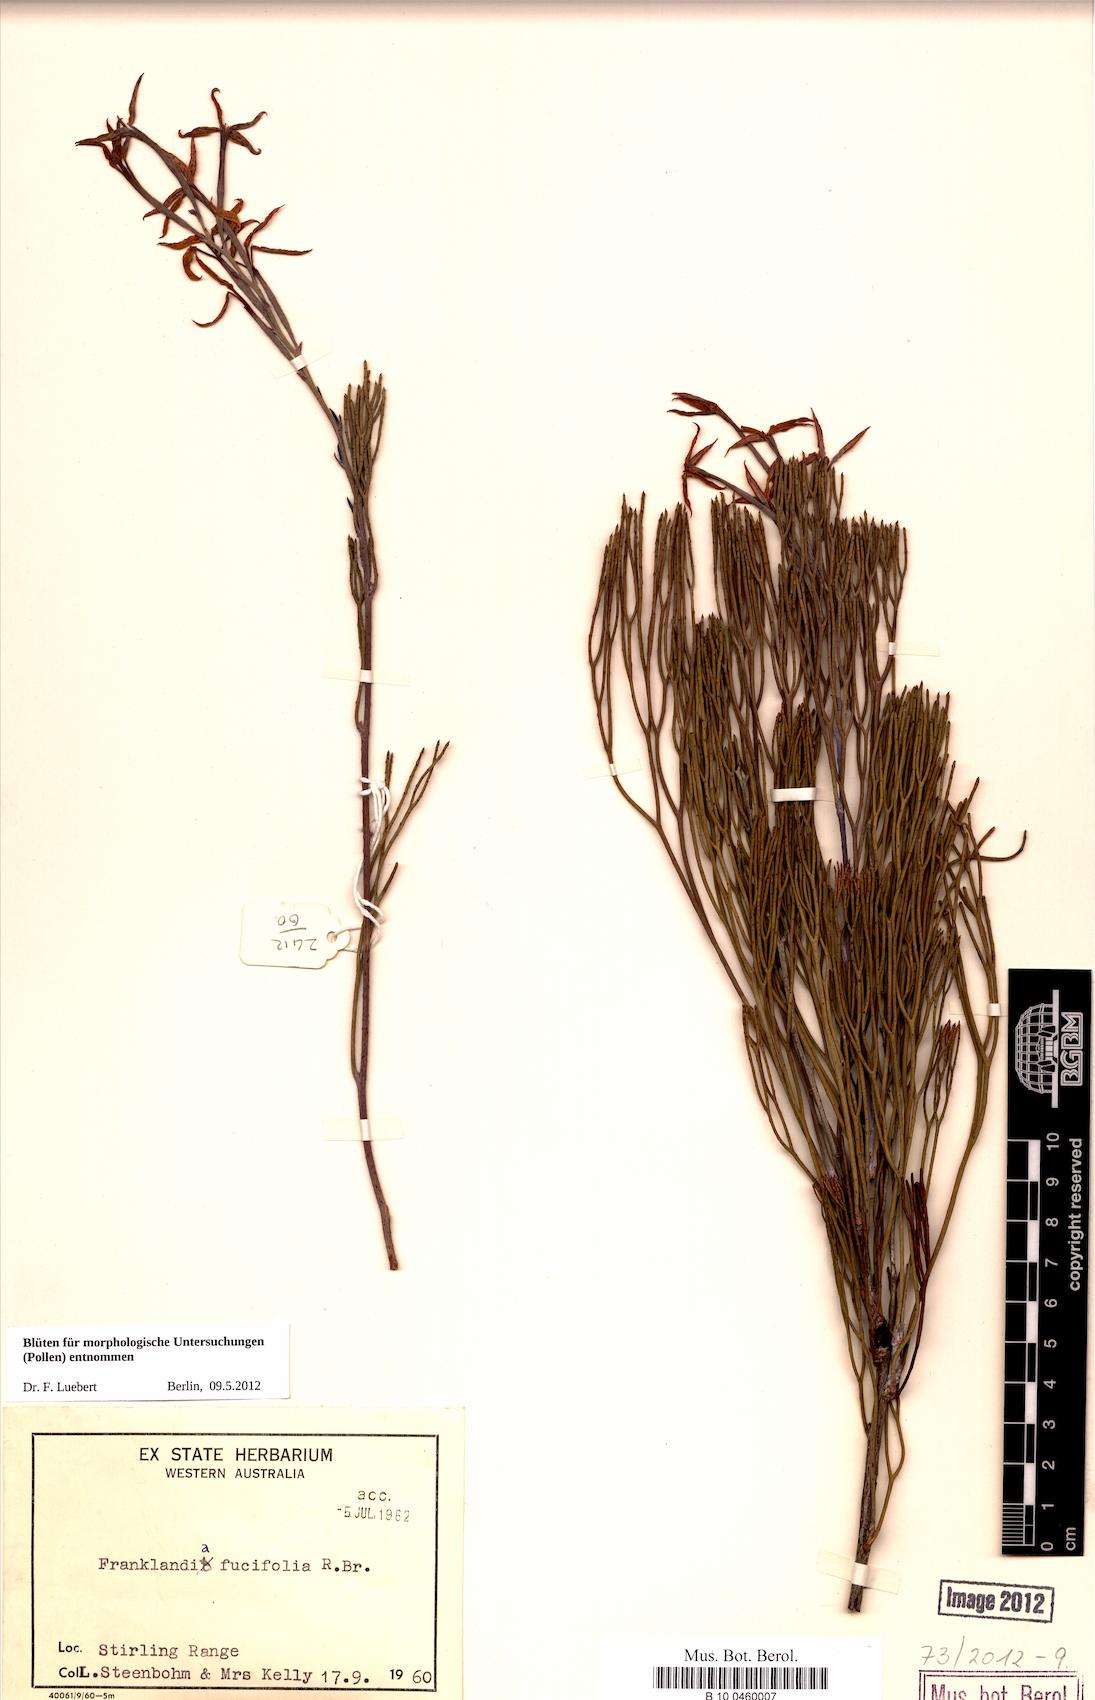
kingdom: Plantae
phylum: Tracheophyta
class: Magnoliopsida
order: Proteales
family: Proteaceae
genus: Franklandia
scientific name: Franklandia fucifolia
